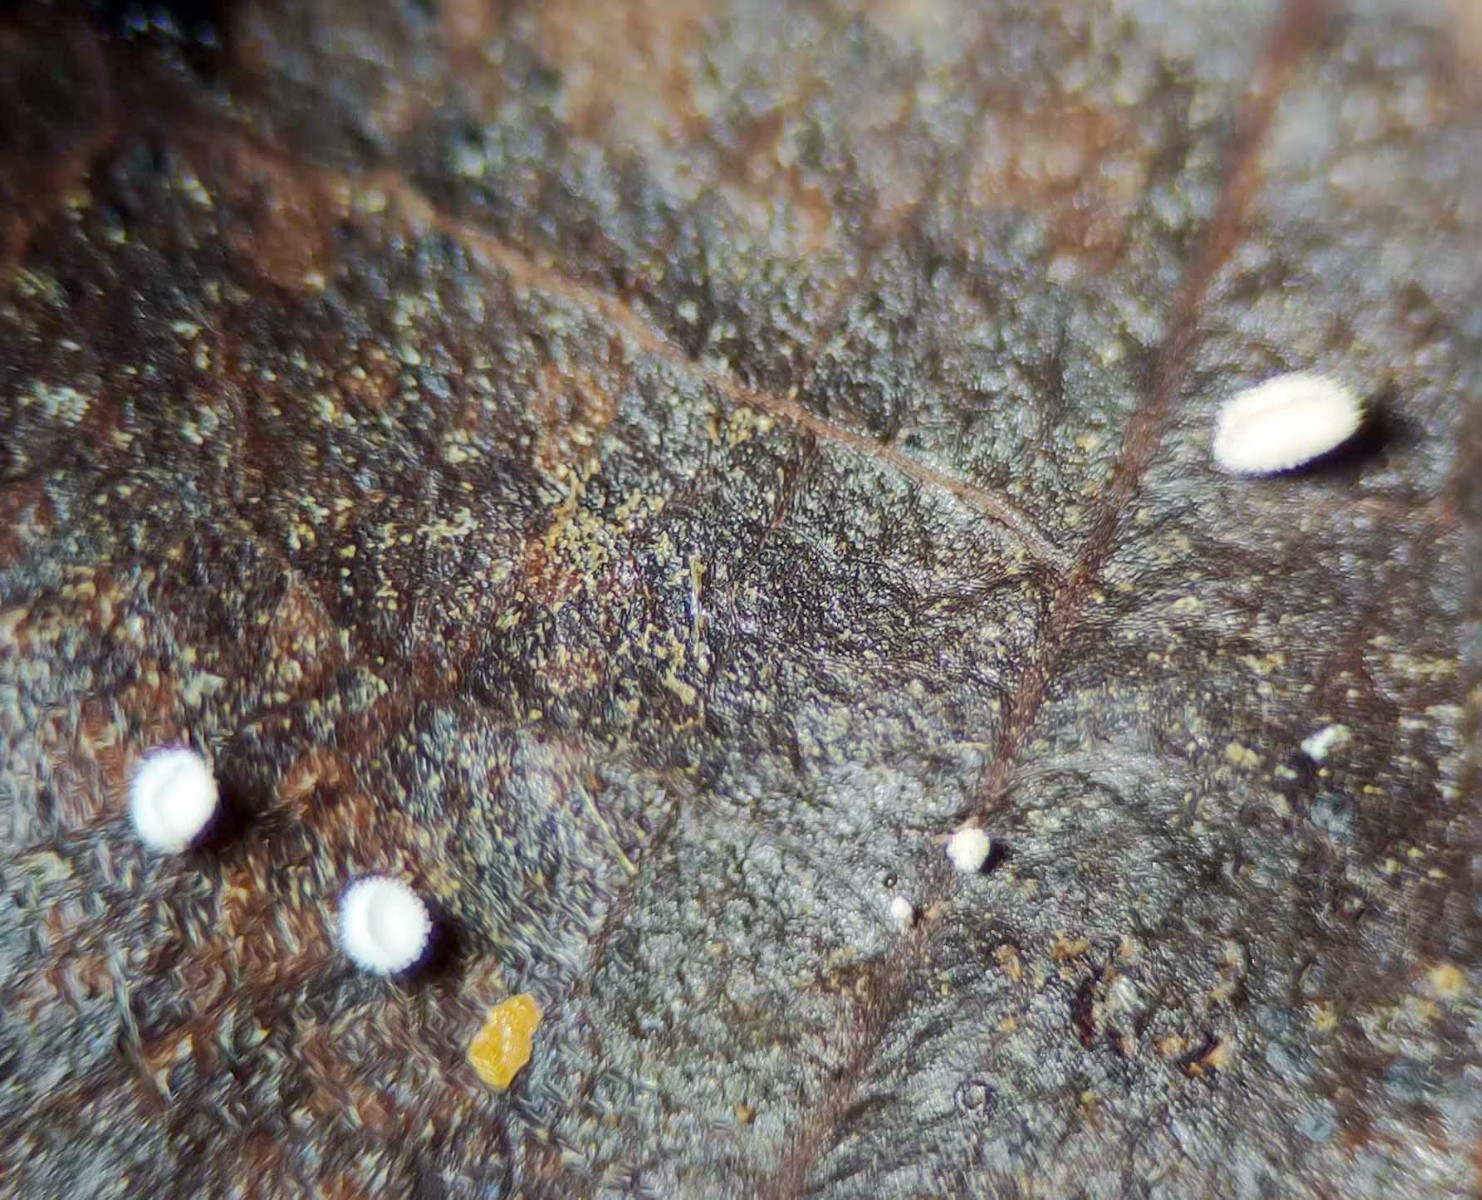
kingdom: Fungi
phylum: Ascomycota
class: Leotiomycetes
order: Helotiales
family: Lachnaceae
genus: Lachnum
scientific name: Lachnum rhytismatis
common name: blad-frynseskive
